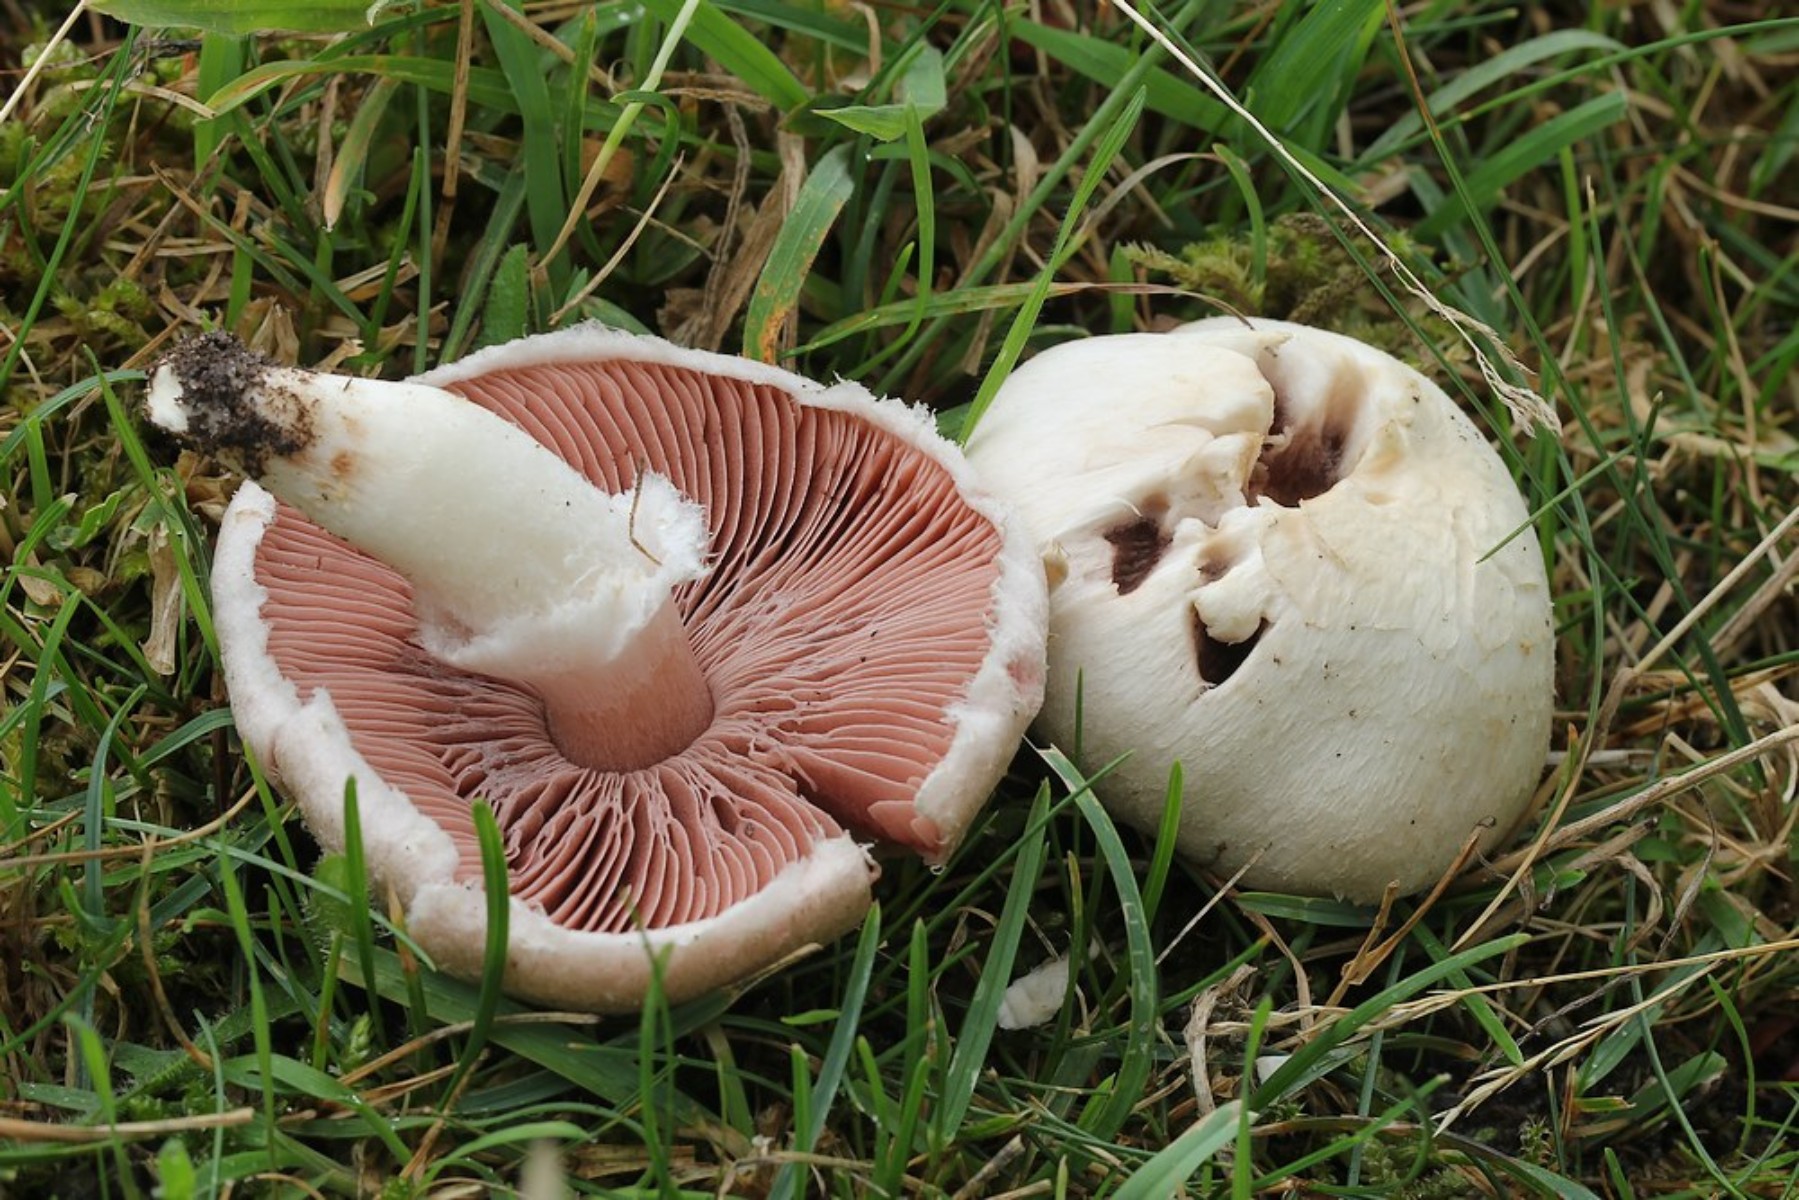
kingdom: Fungi
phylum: Basidiomycota
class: Agaricomycetes
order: Agaricales
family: Agaricaceae
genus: Agaricus
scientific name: Agaricus campestris
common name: mark-champignon
